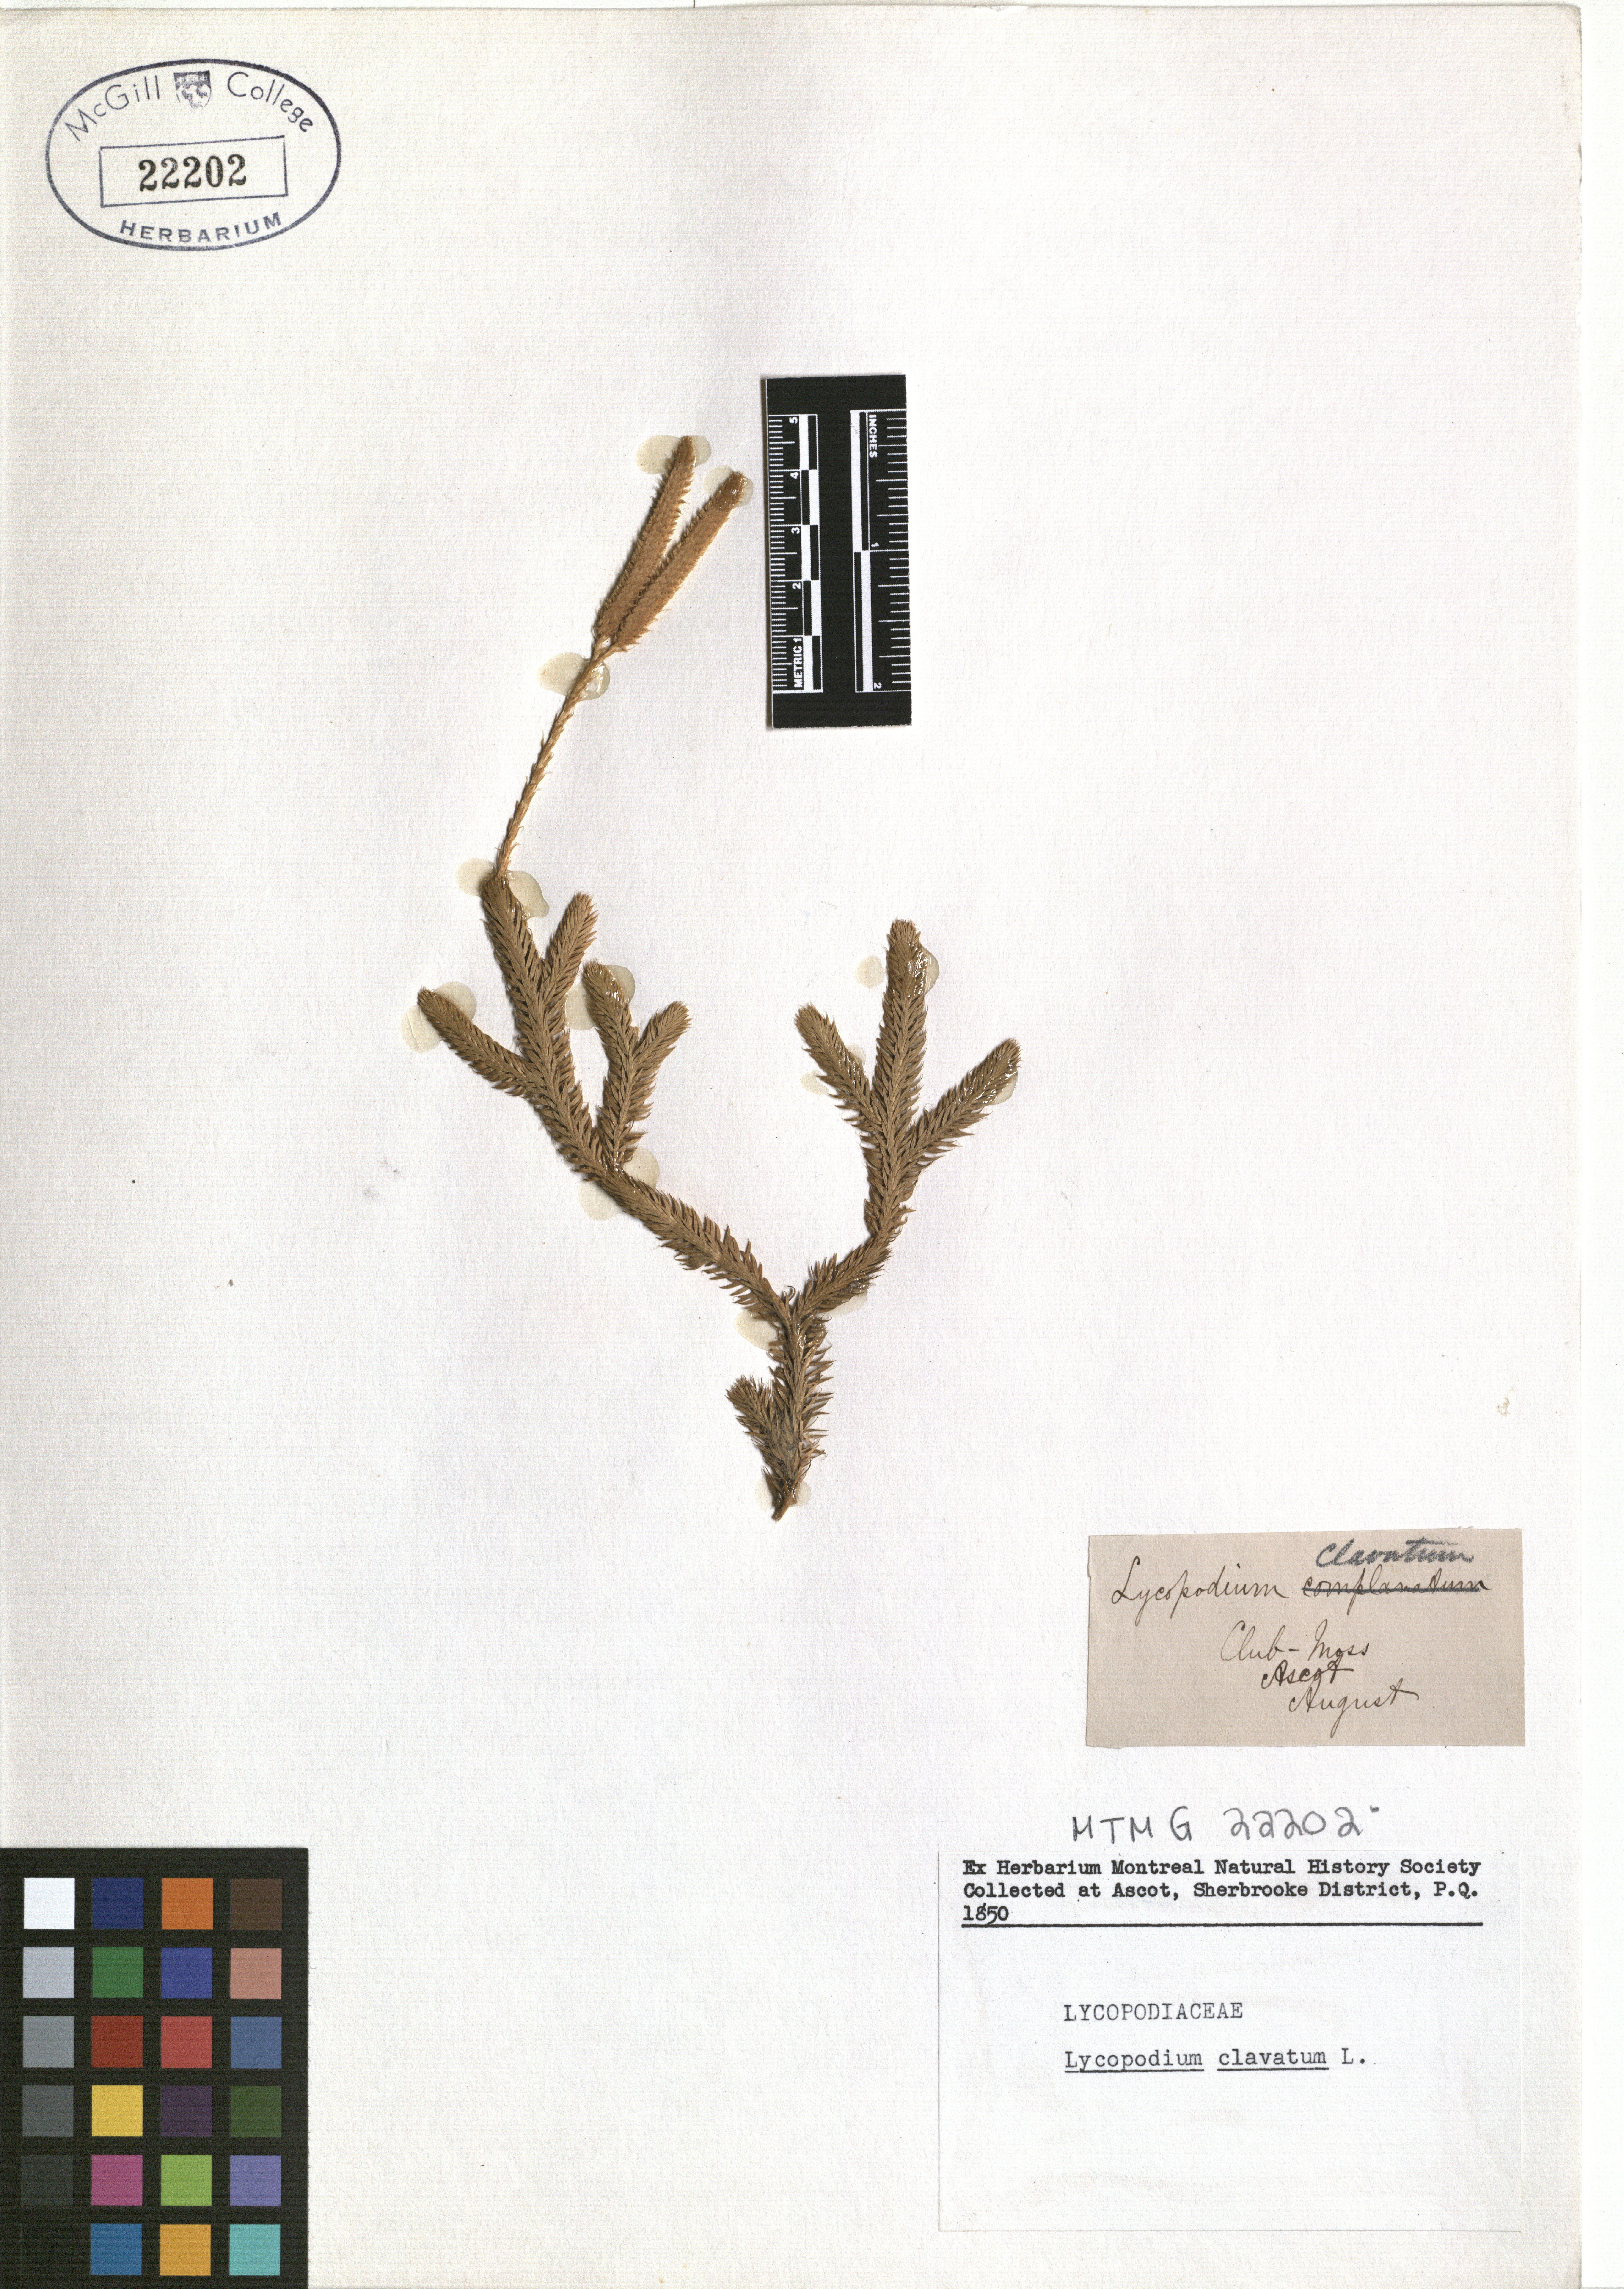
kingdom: Plantae
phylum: Tracheophyta
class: Lycopodiopsida
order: Lycopodiales
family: Lycopodiaceae
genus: Lycopodium
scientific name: Lycopodium clavatum
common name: Stag's-horn clubmoss
